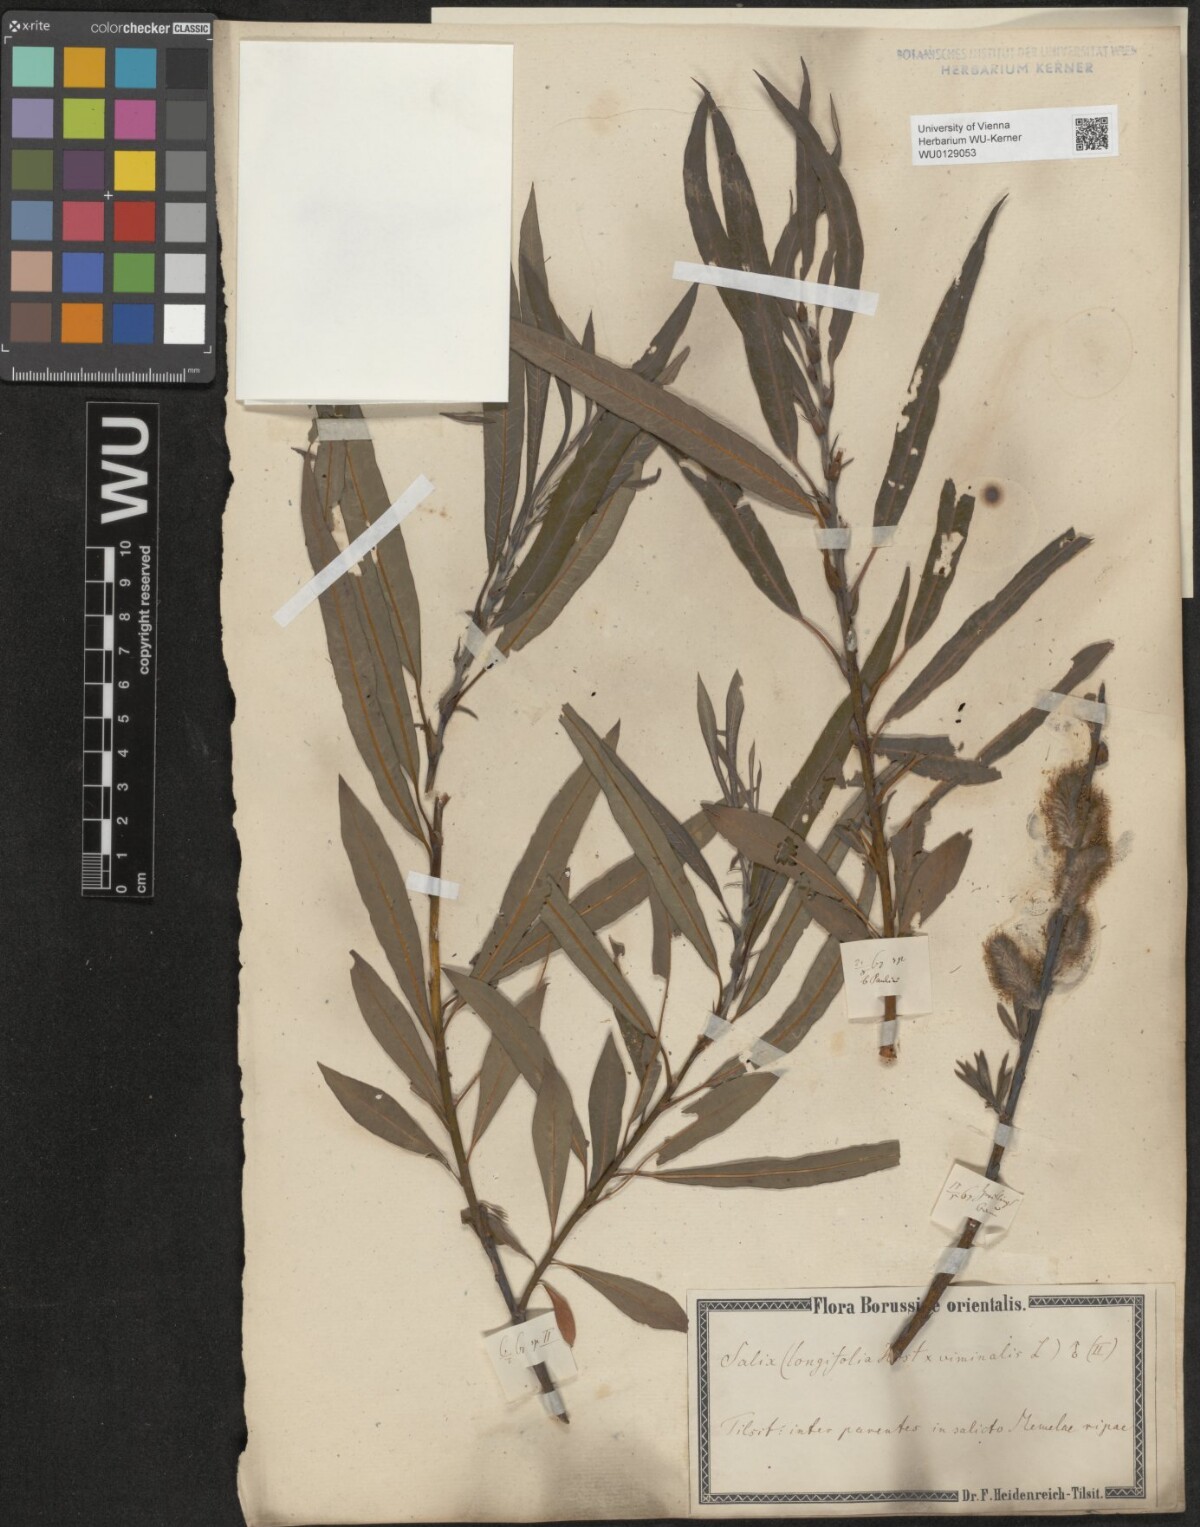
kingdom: Plantae
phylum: Tracheophyta
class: Magnoliopsida
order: Malpighiales
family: Salicaceae
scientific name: Salicaceae
